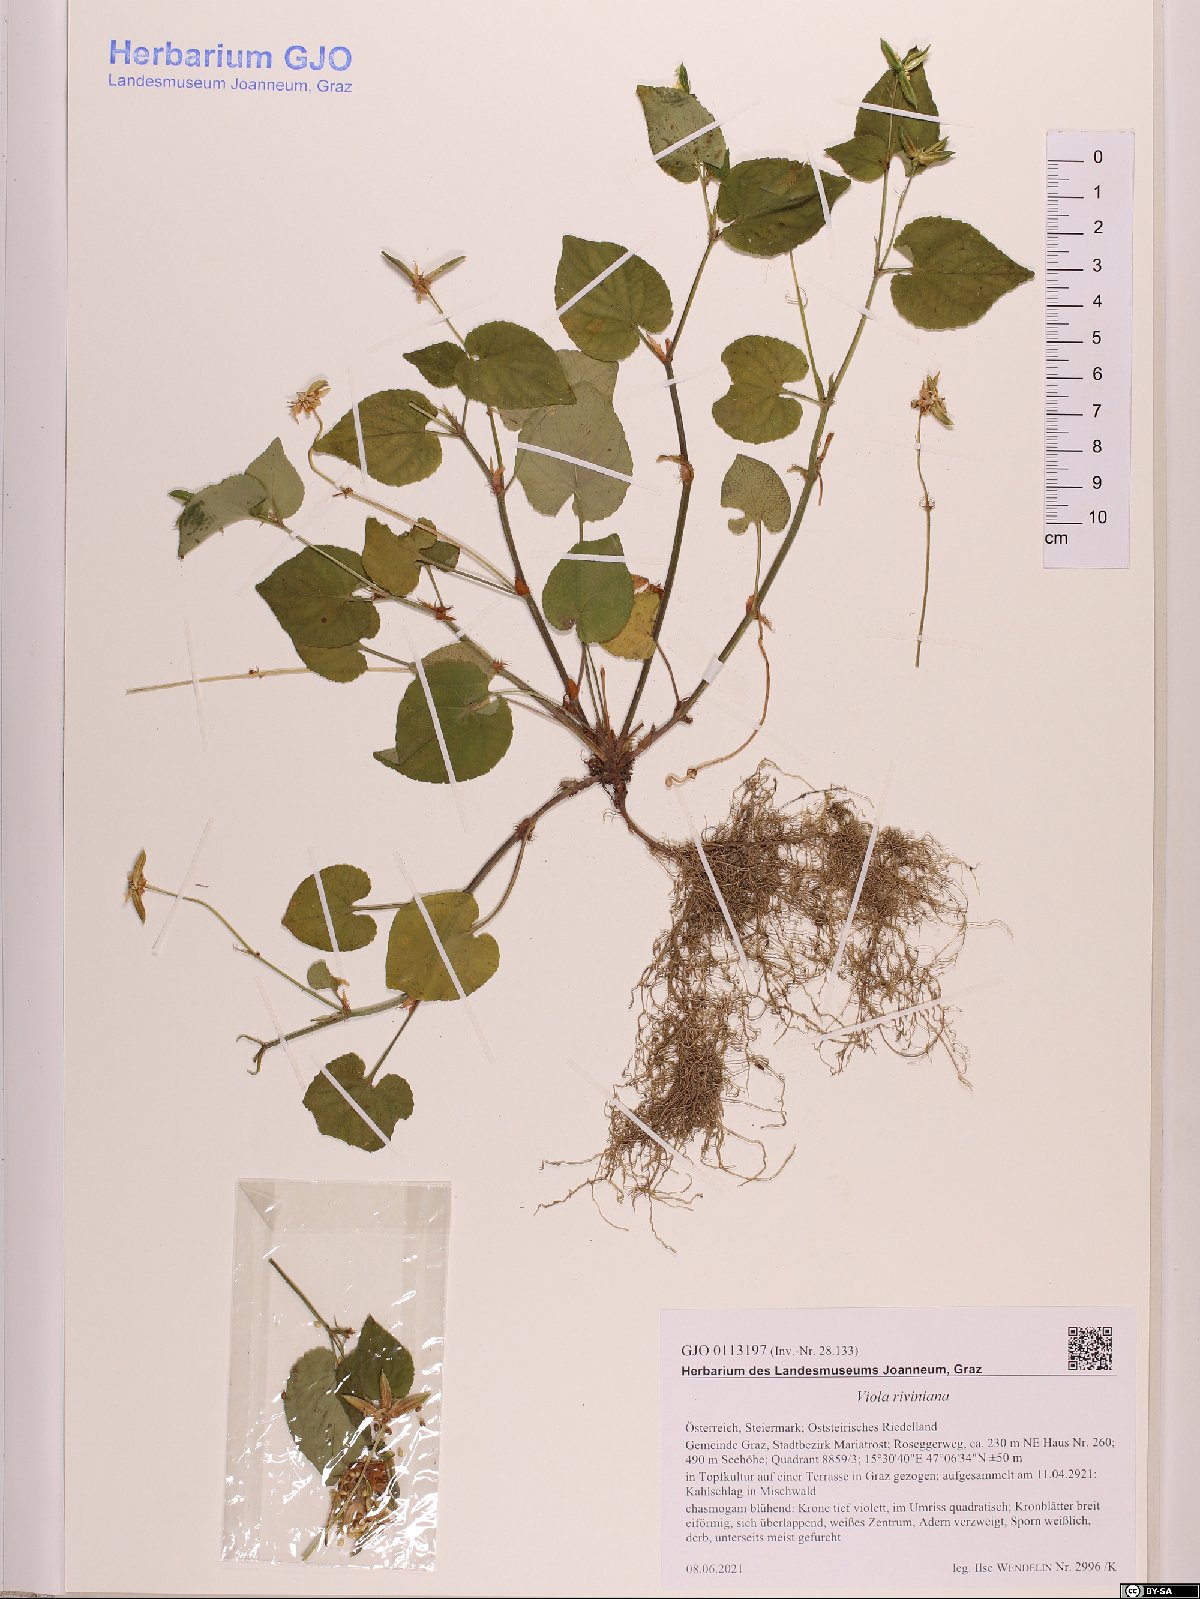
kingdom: Plantae
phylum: Tracheophyta
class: Magnoliopsida
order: Malpighiales
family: Violaceae
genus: Viola
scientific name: Viola riviniana
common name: Common dog-violet
